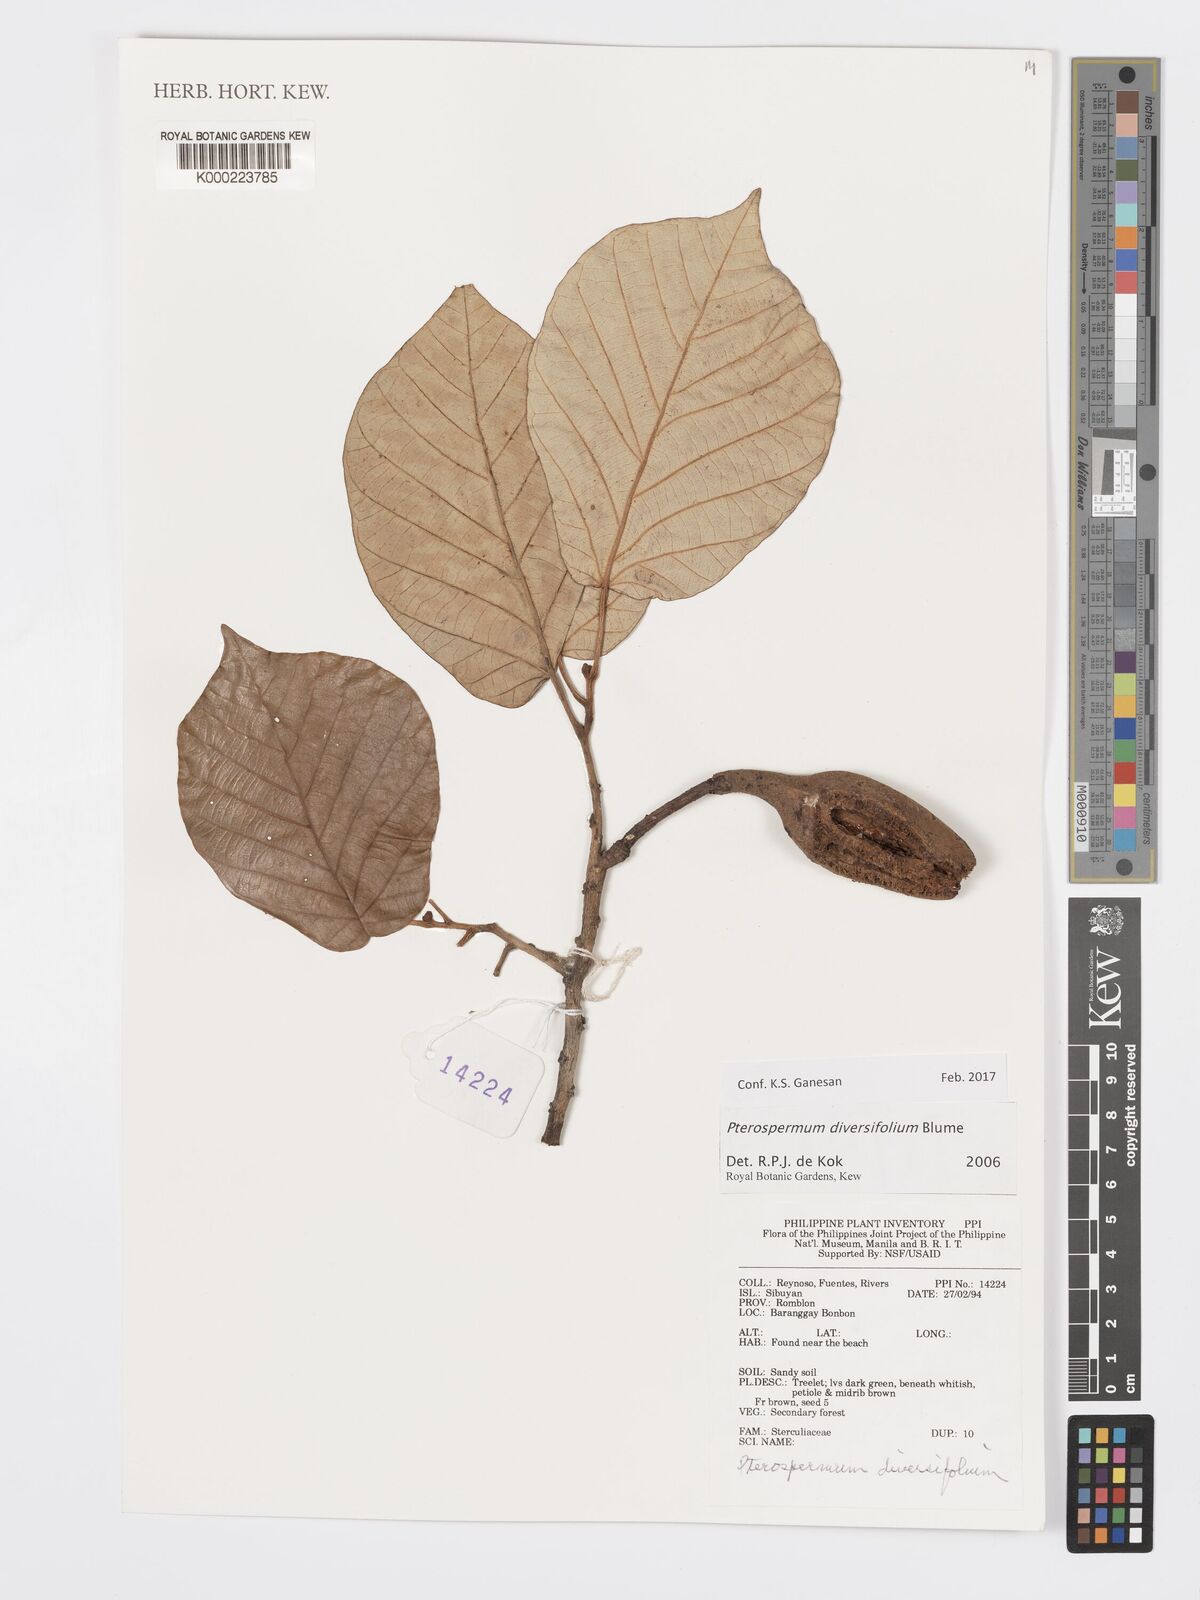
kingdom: Plantae
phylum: Tracheophyta
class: Magnoliopsida
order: Malvales
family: Malvaceae
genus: Pterospermum
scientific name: Pterospermum diversifolium
